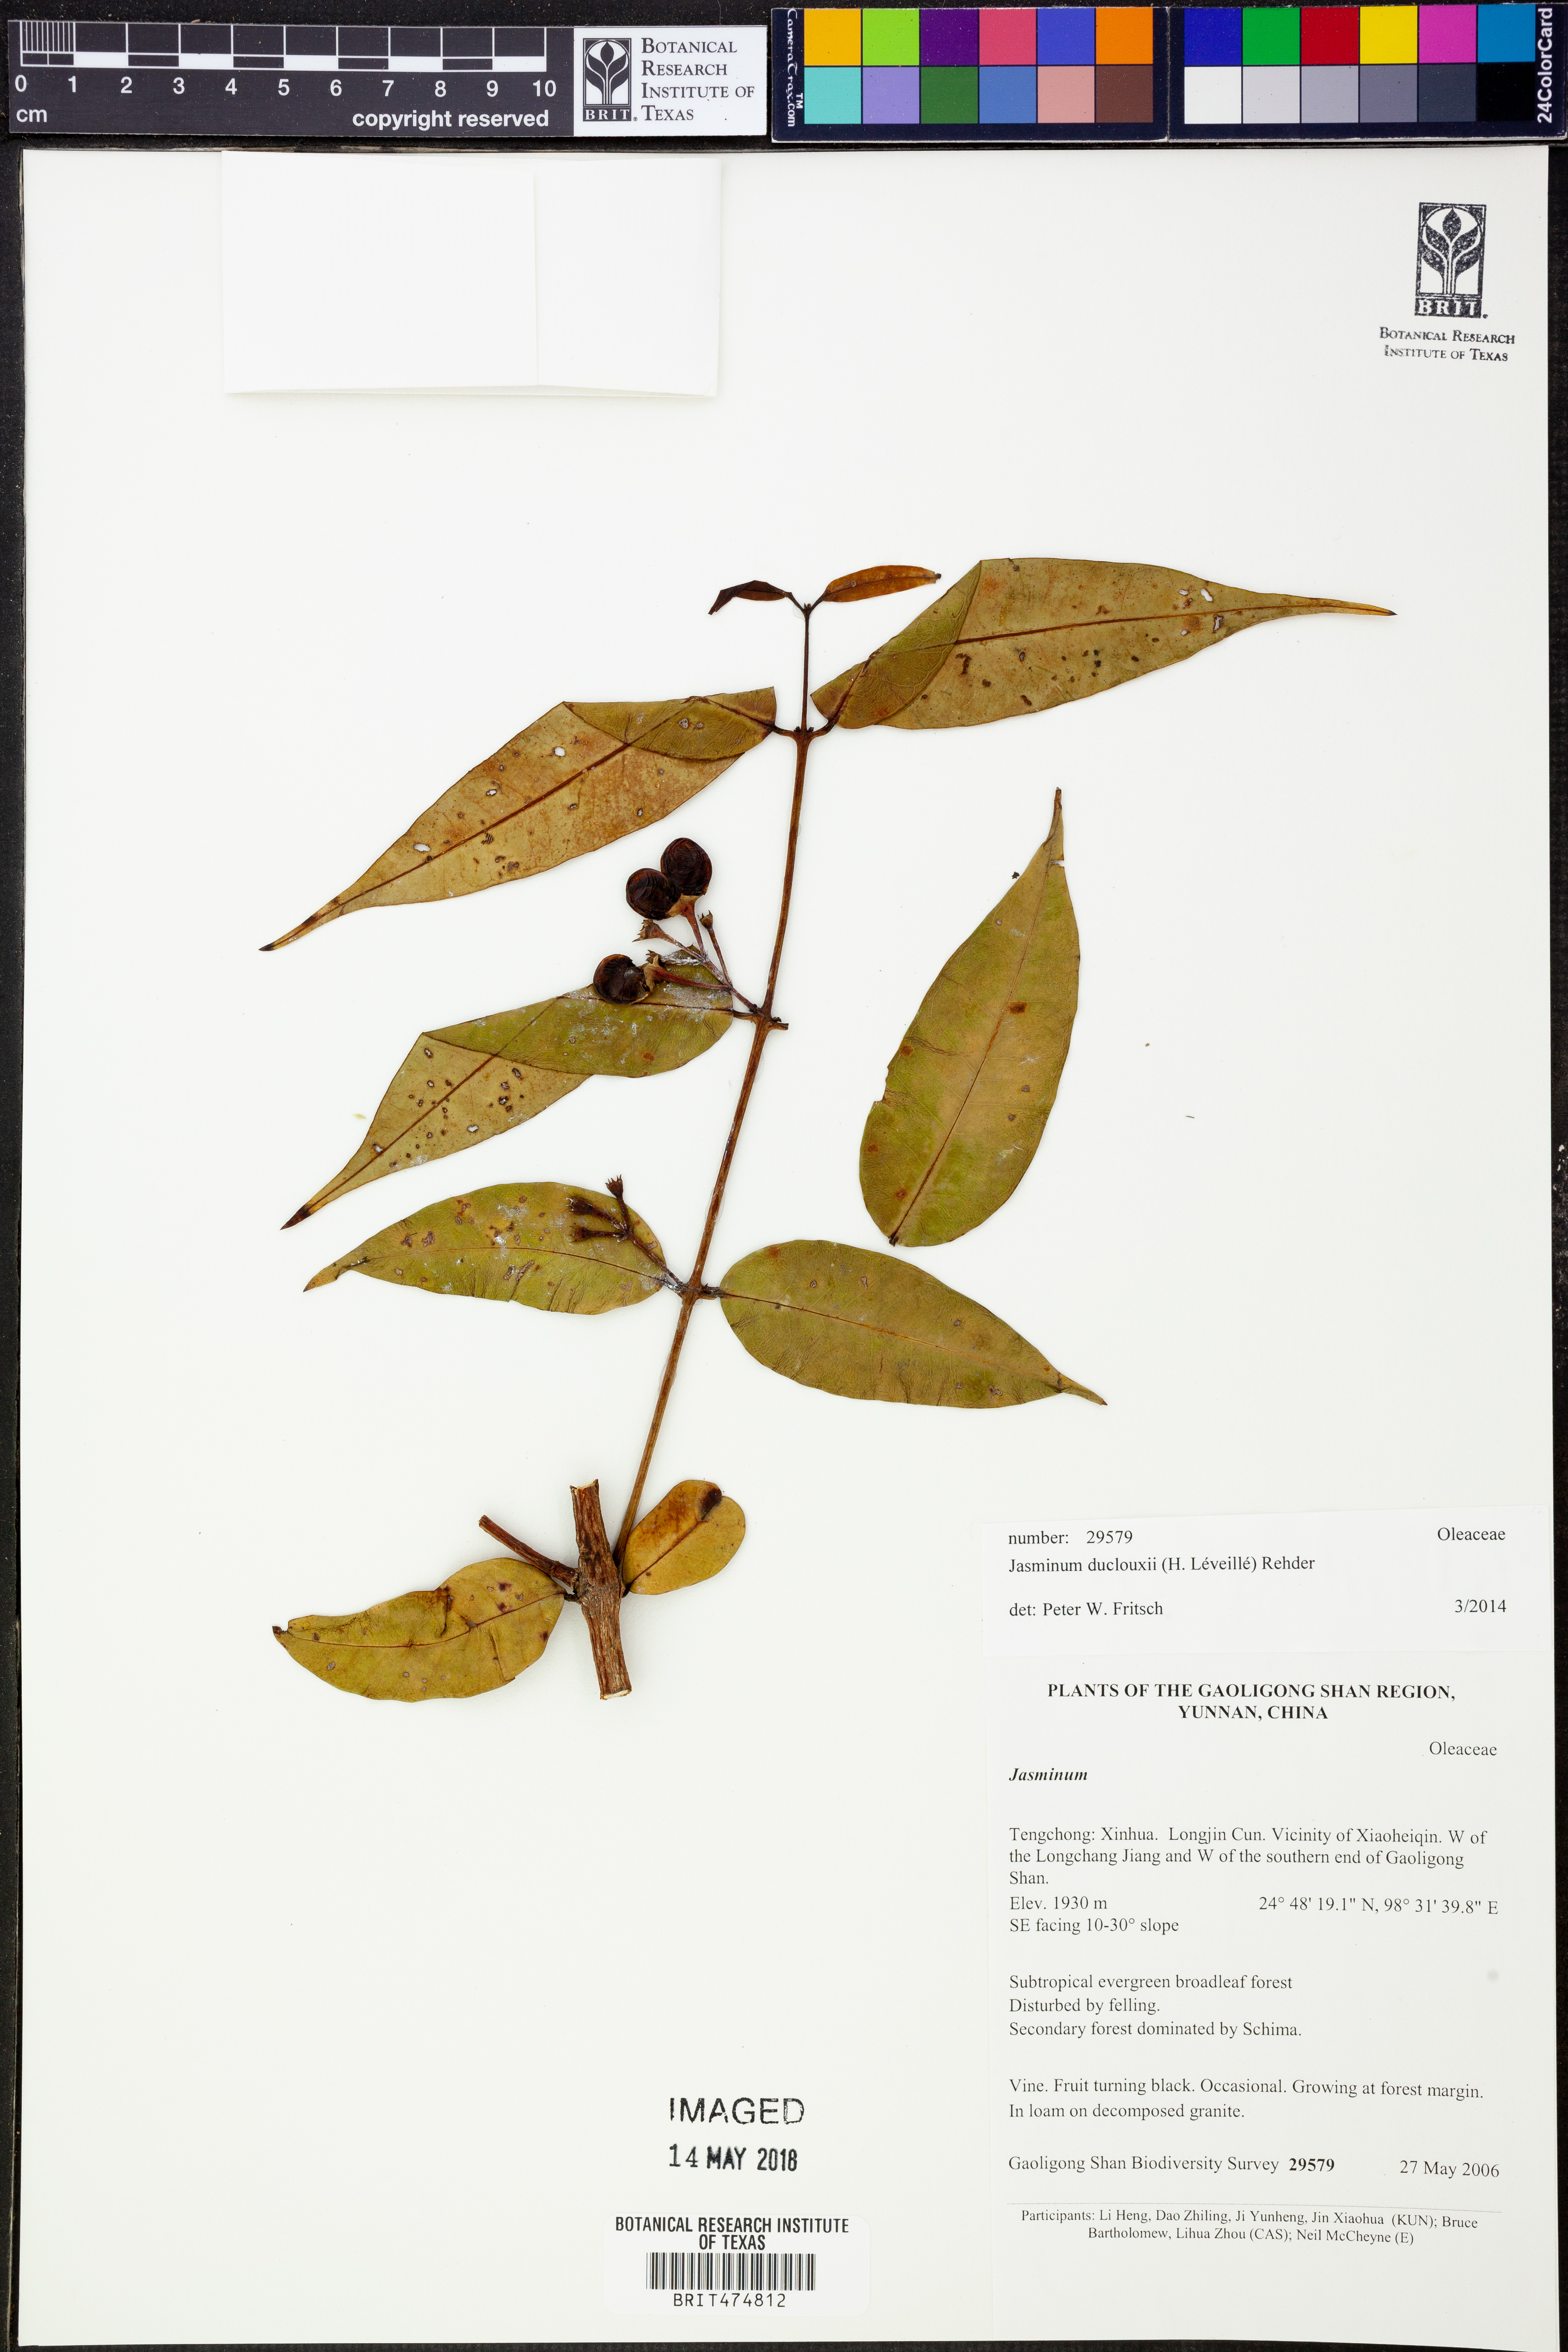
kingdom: Plantae
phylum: Tracheophyta
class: Magnoliopsida
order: Lamiales
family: Oleaceae
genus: Jasminum
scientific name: Jasminum duclouxii
